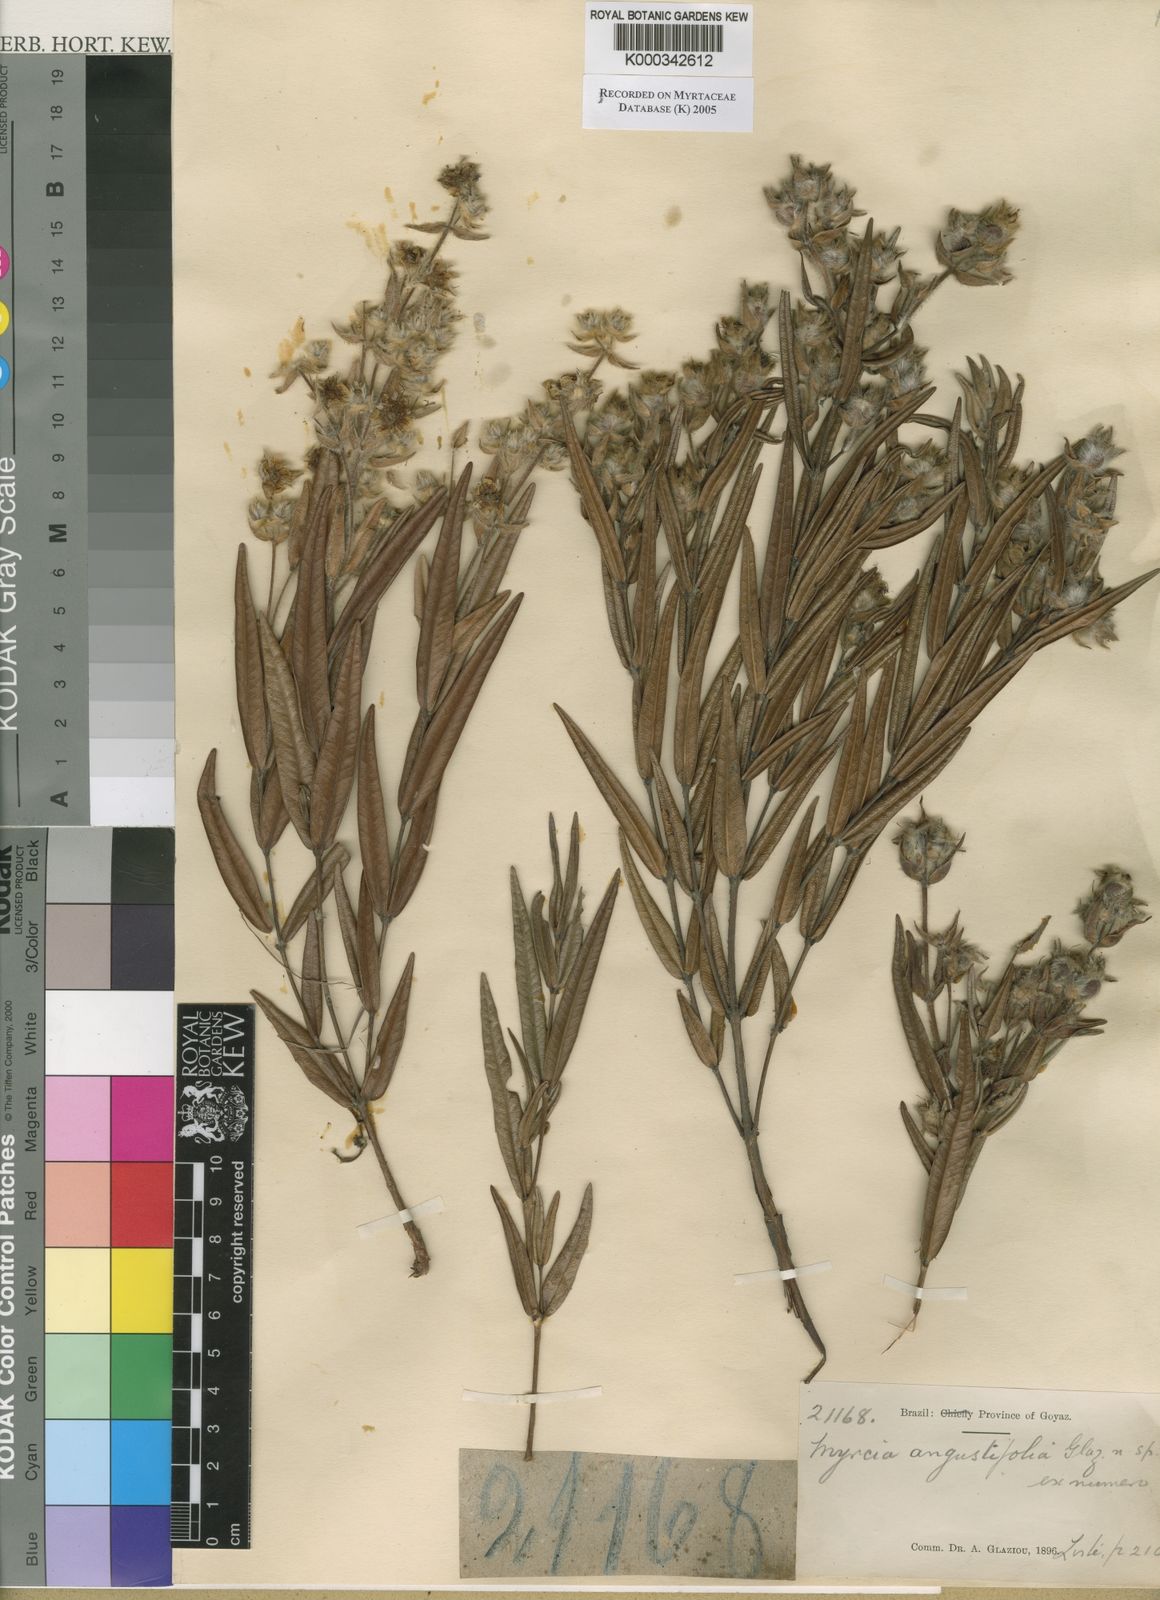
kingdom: Plantae
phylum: Tracheophyta
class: Magnoliopsida
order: Myrtales
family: Myrtaceae
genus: Myrcia
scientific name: Myrcia
